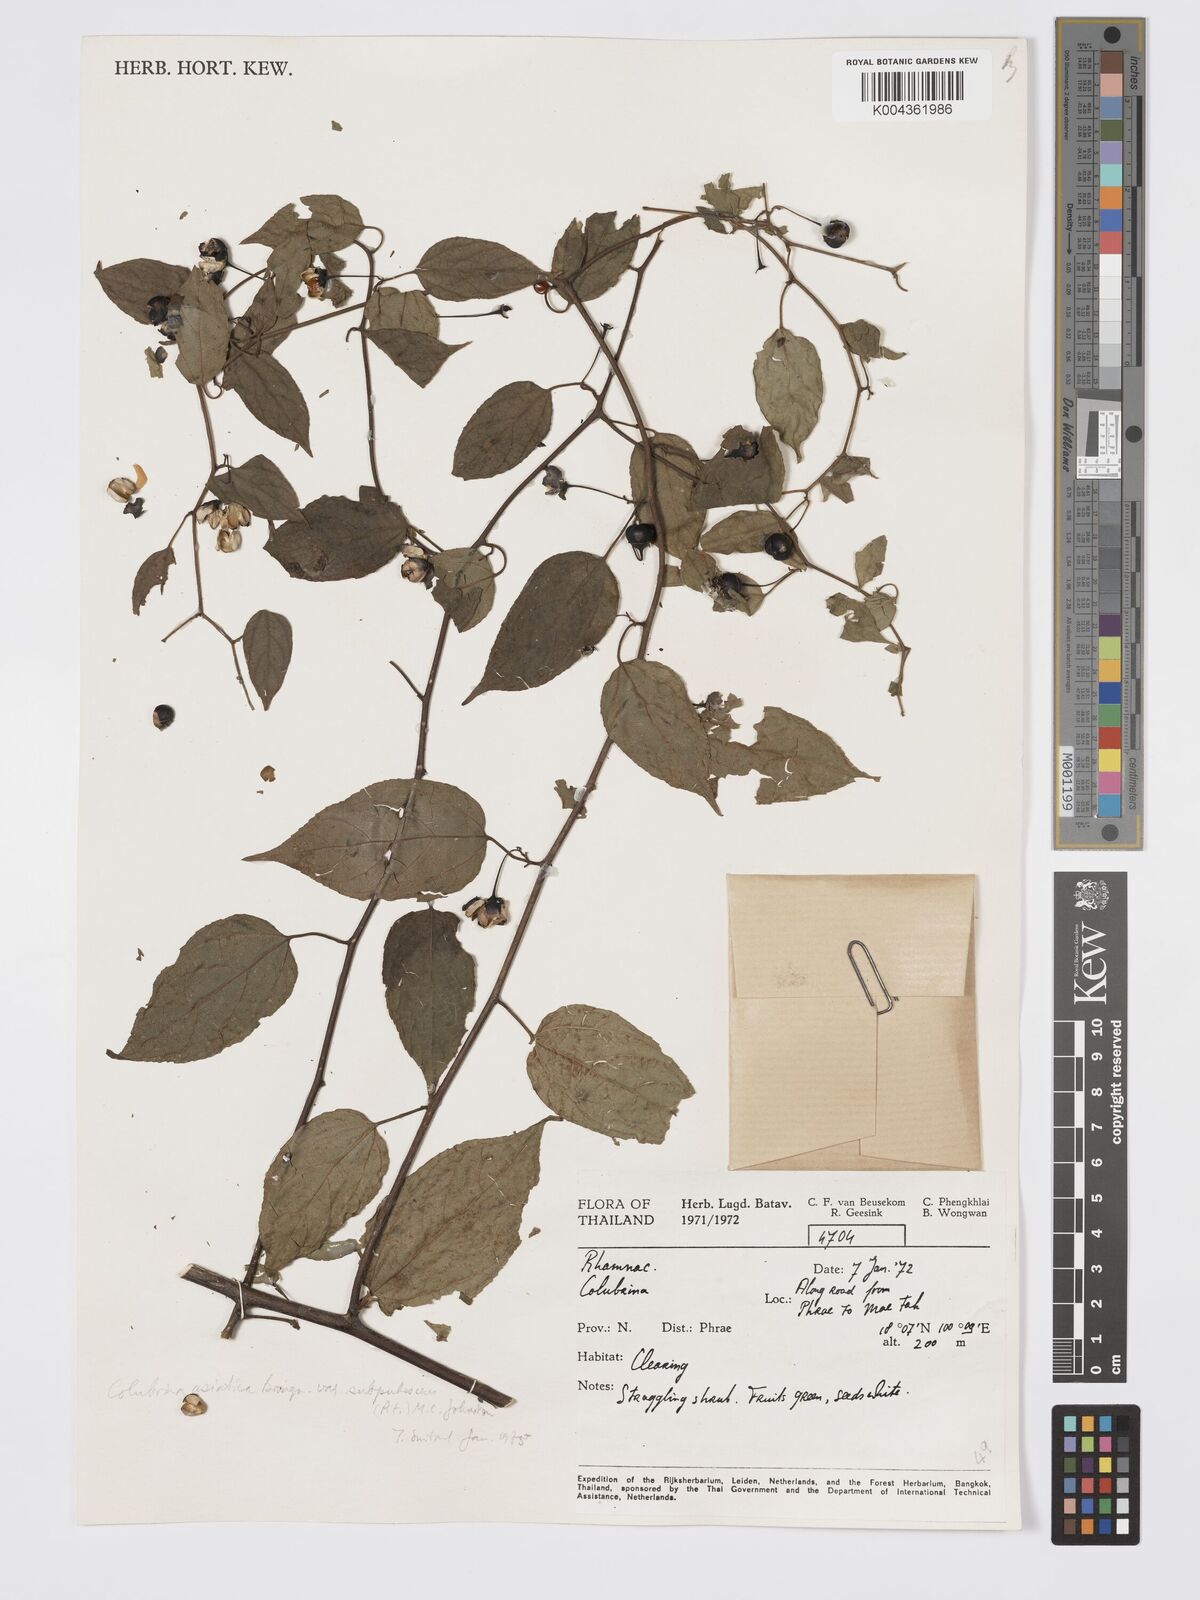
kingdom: Plantae
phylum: Tracheophyta
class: Magnoliopsida
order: Rosales
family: Rhamnaceae
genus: Colubrina
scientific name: Colubrina javanica
